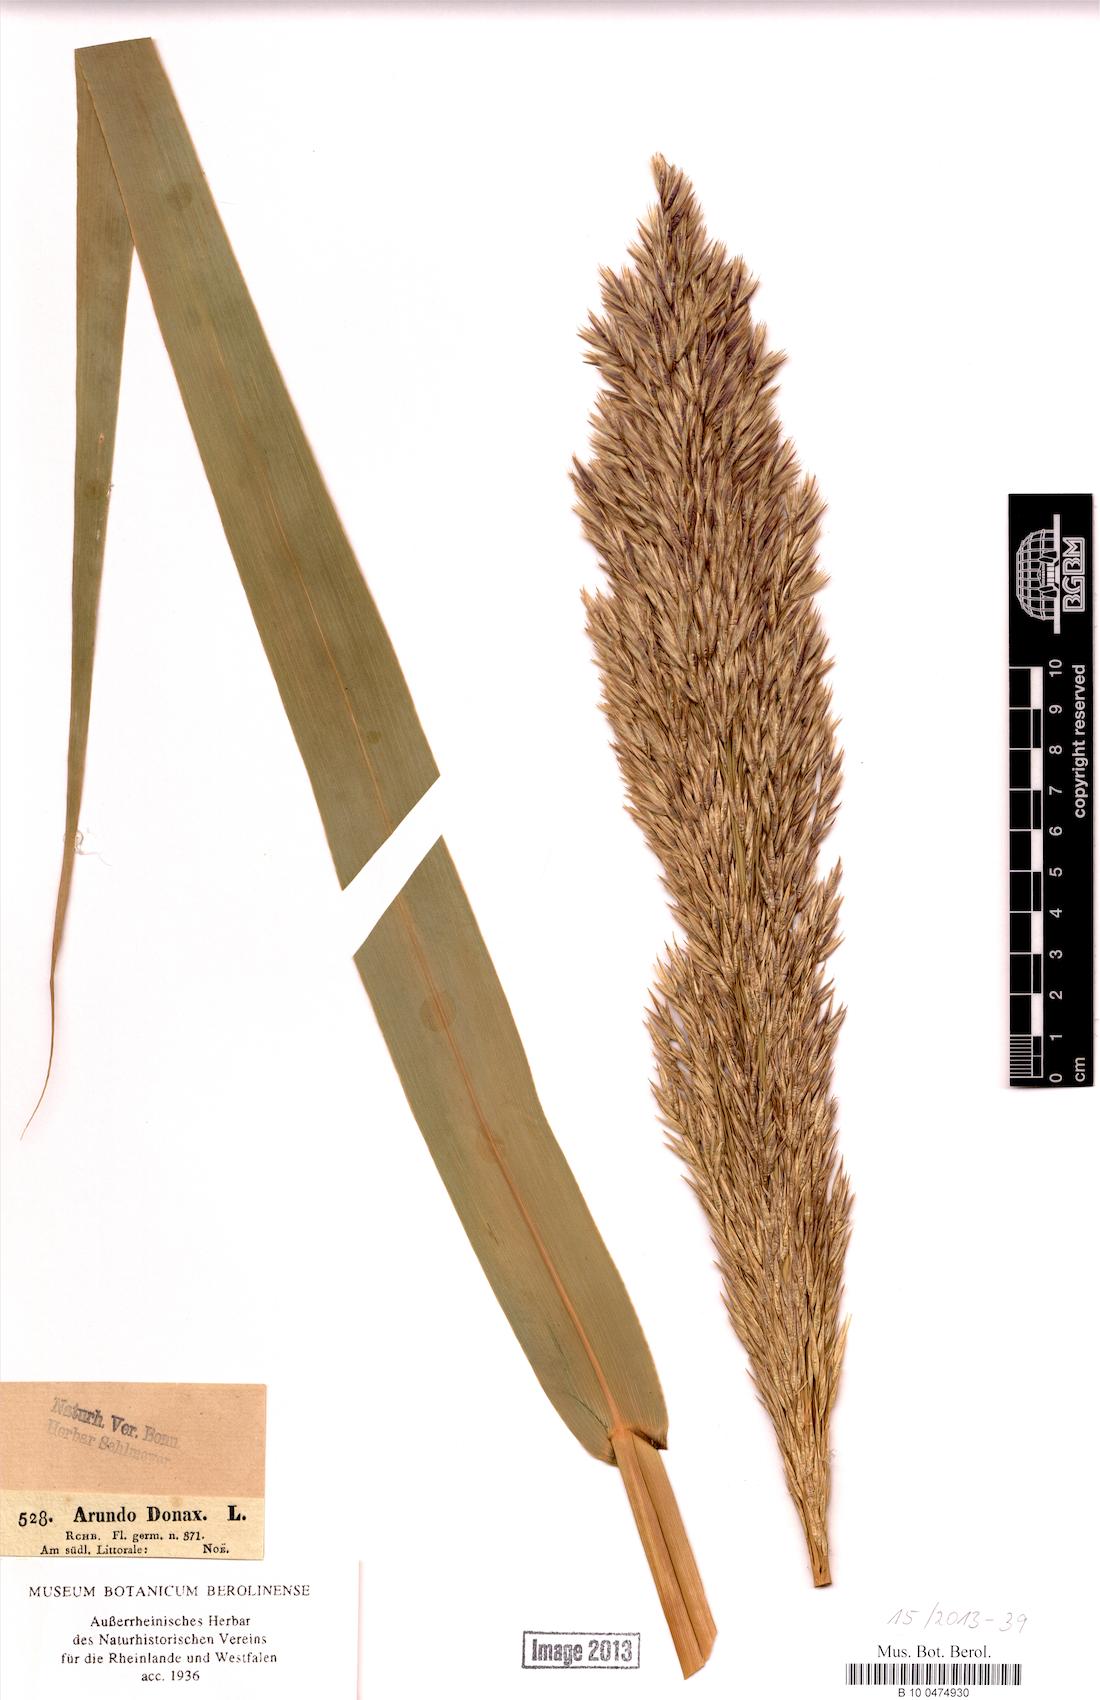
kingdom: Plantae
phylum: Tracheophyta
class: Liliopsida
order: Poales
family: Poaceae
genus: Arundo
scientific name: Arundo donax
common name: Giant reed
